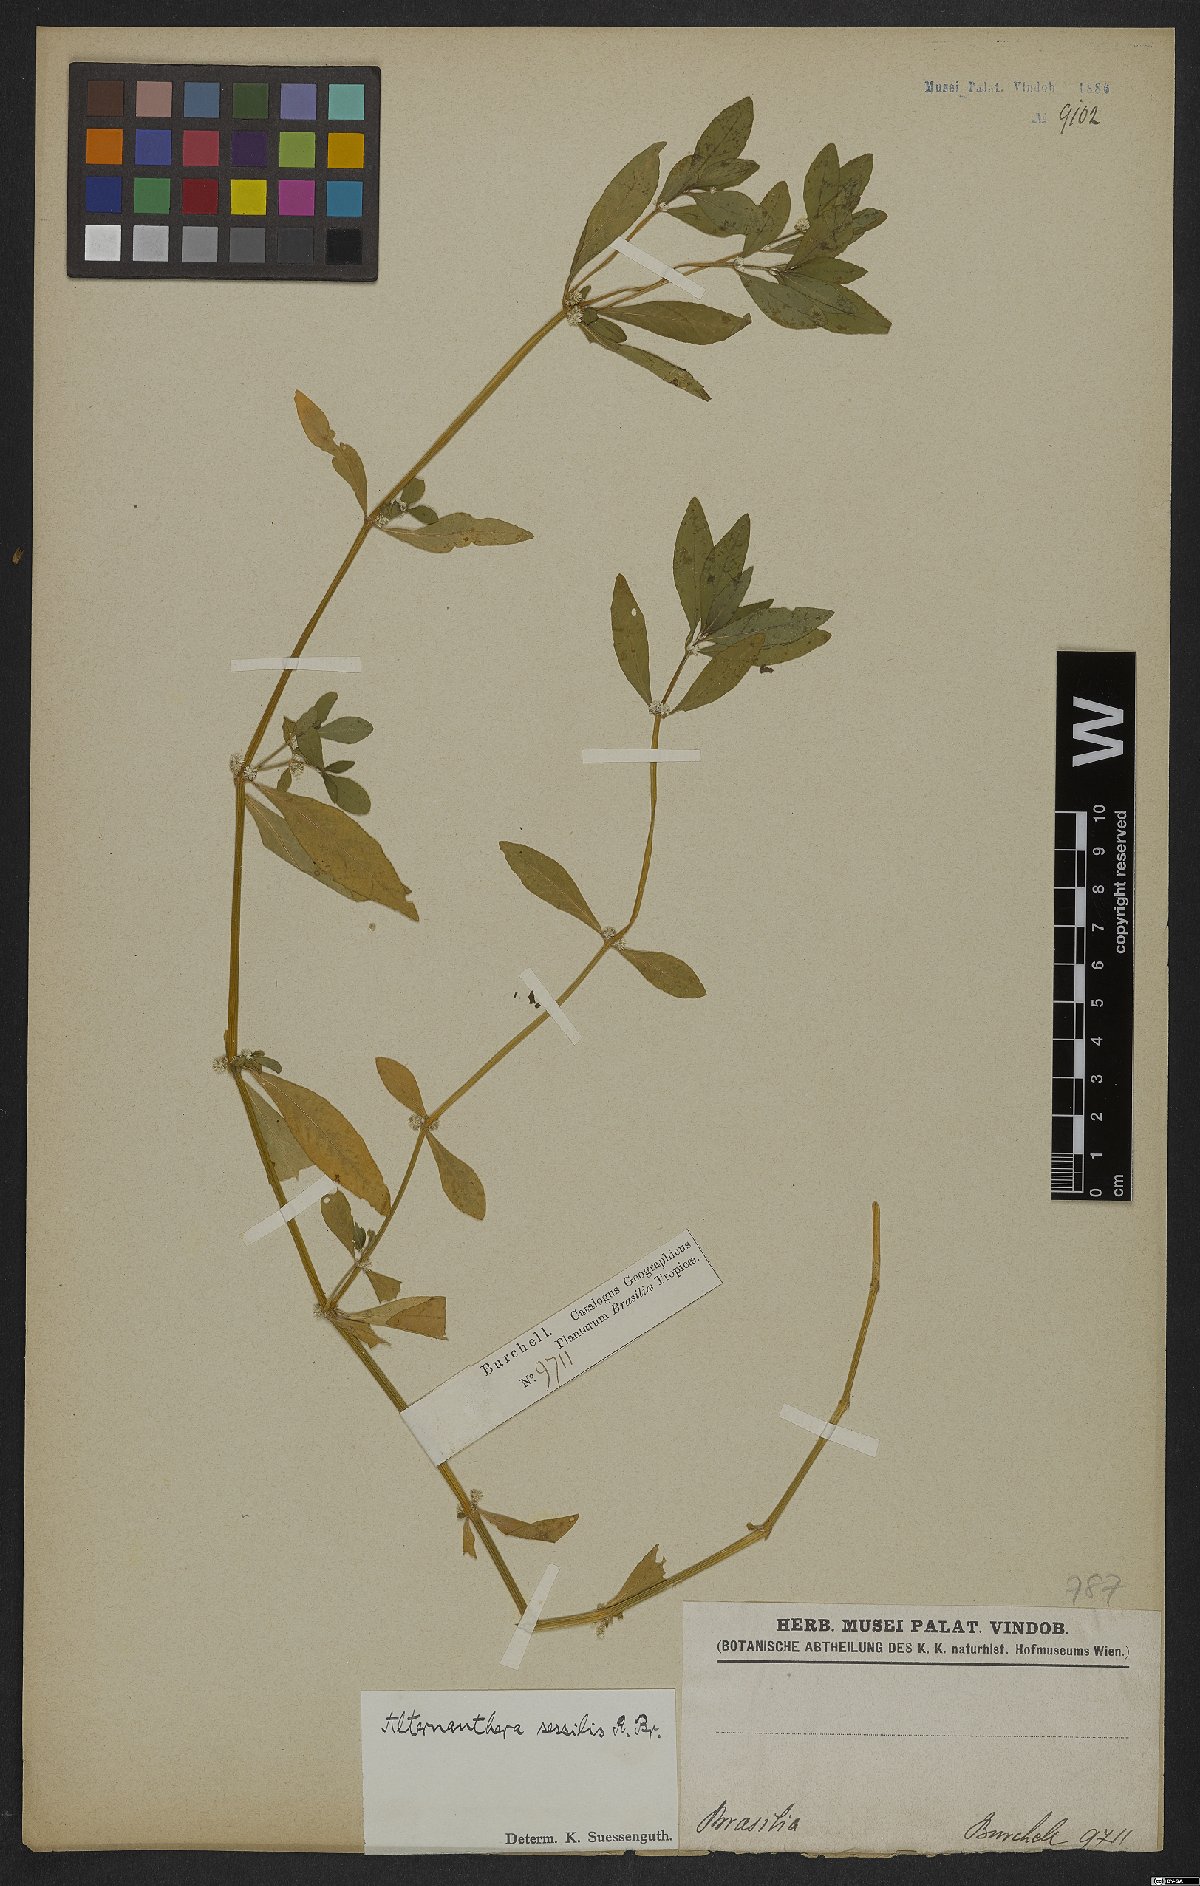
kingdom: Plantae
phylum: Tracheophyta
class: Magnoliopsida
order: Caryophyllales
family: Amaranthaceae
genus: Alternanthera
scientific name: Alternanthera sessilis
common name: Sessile joyweed
